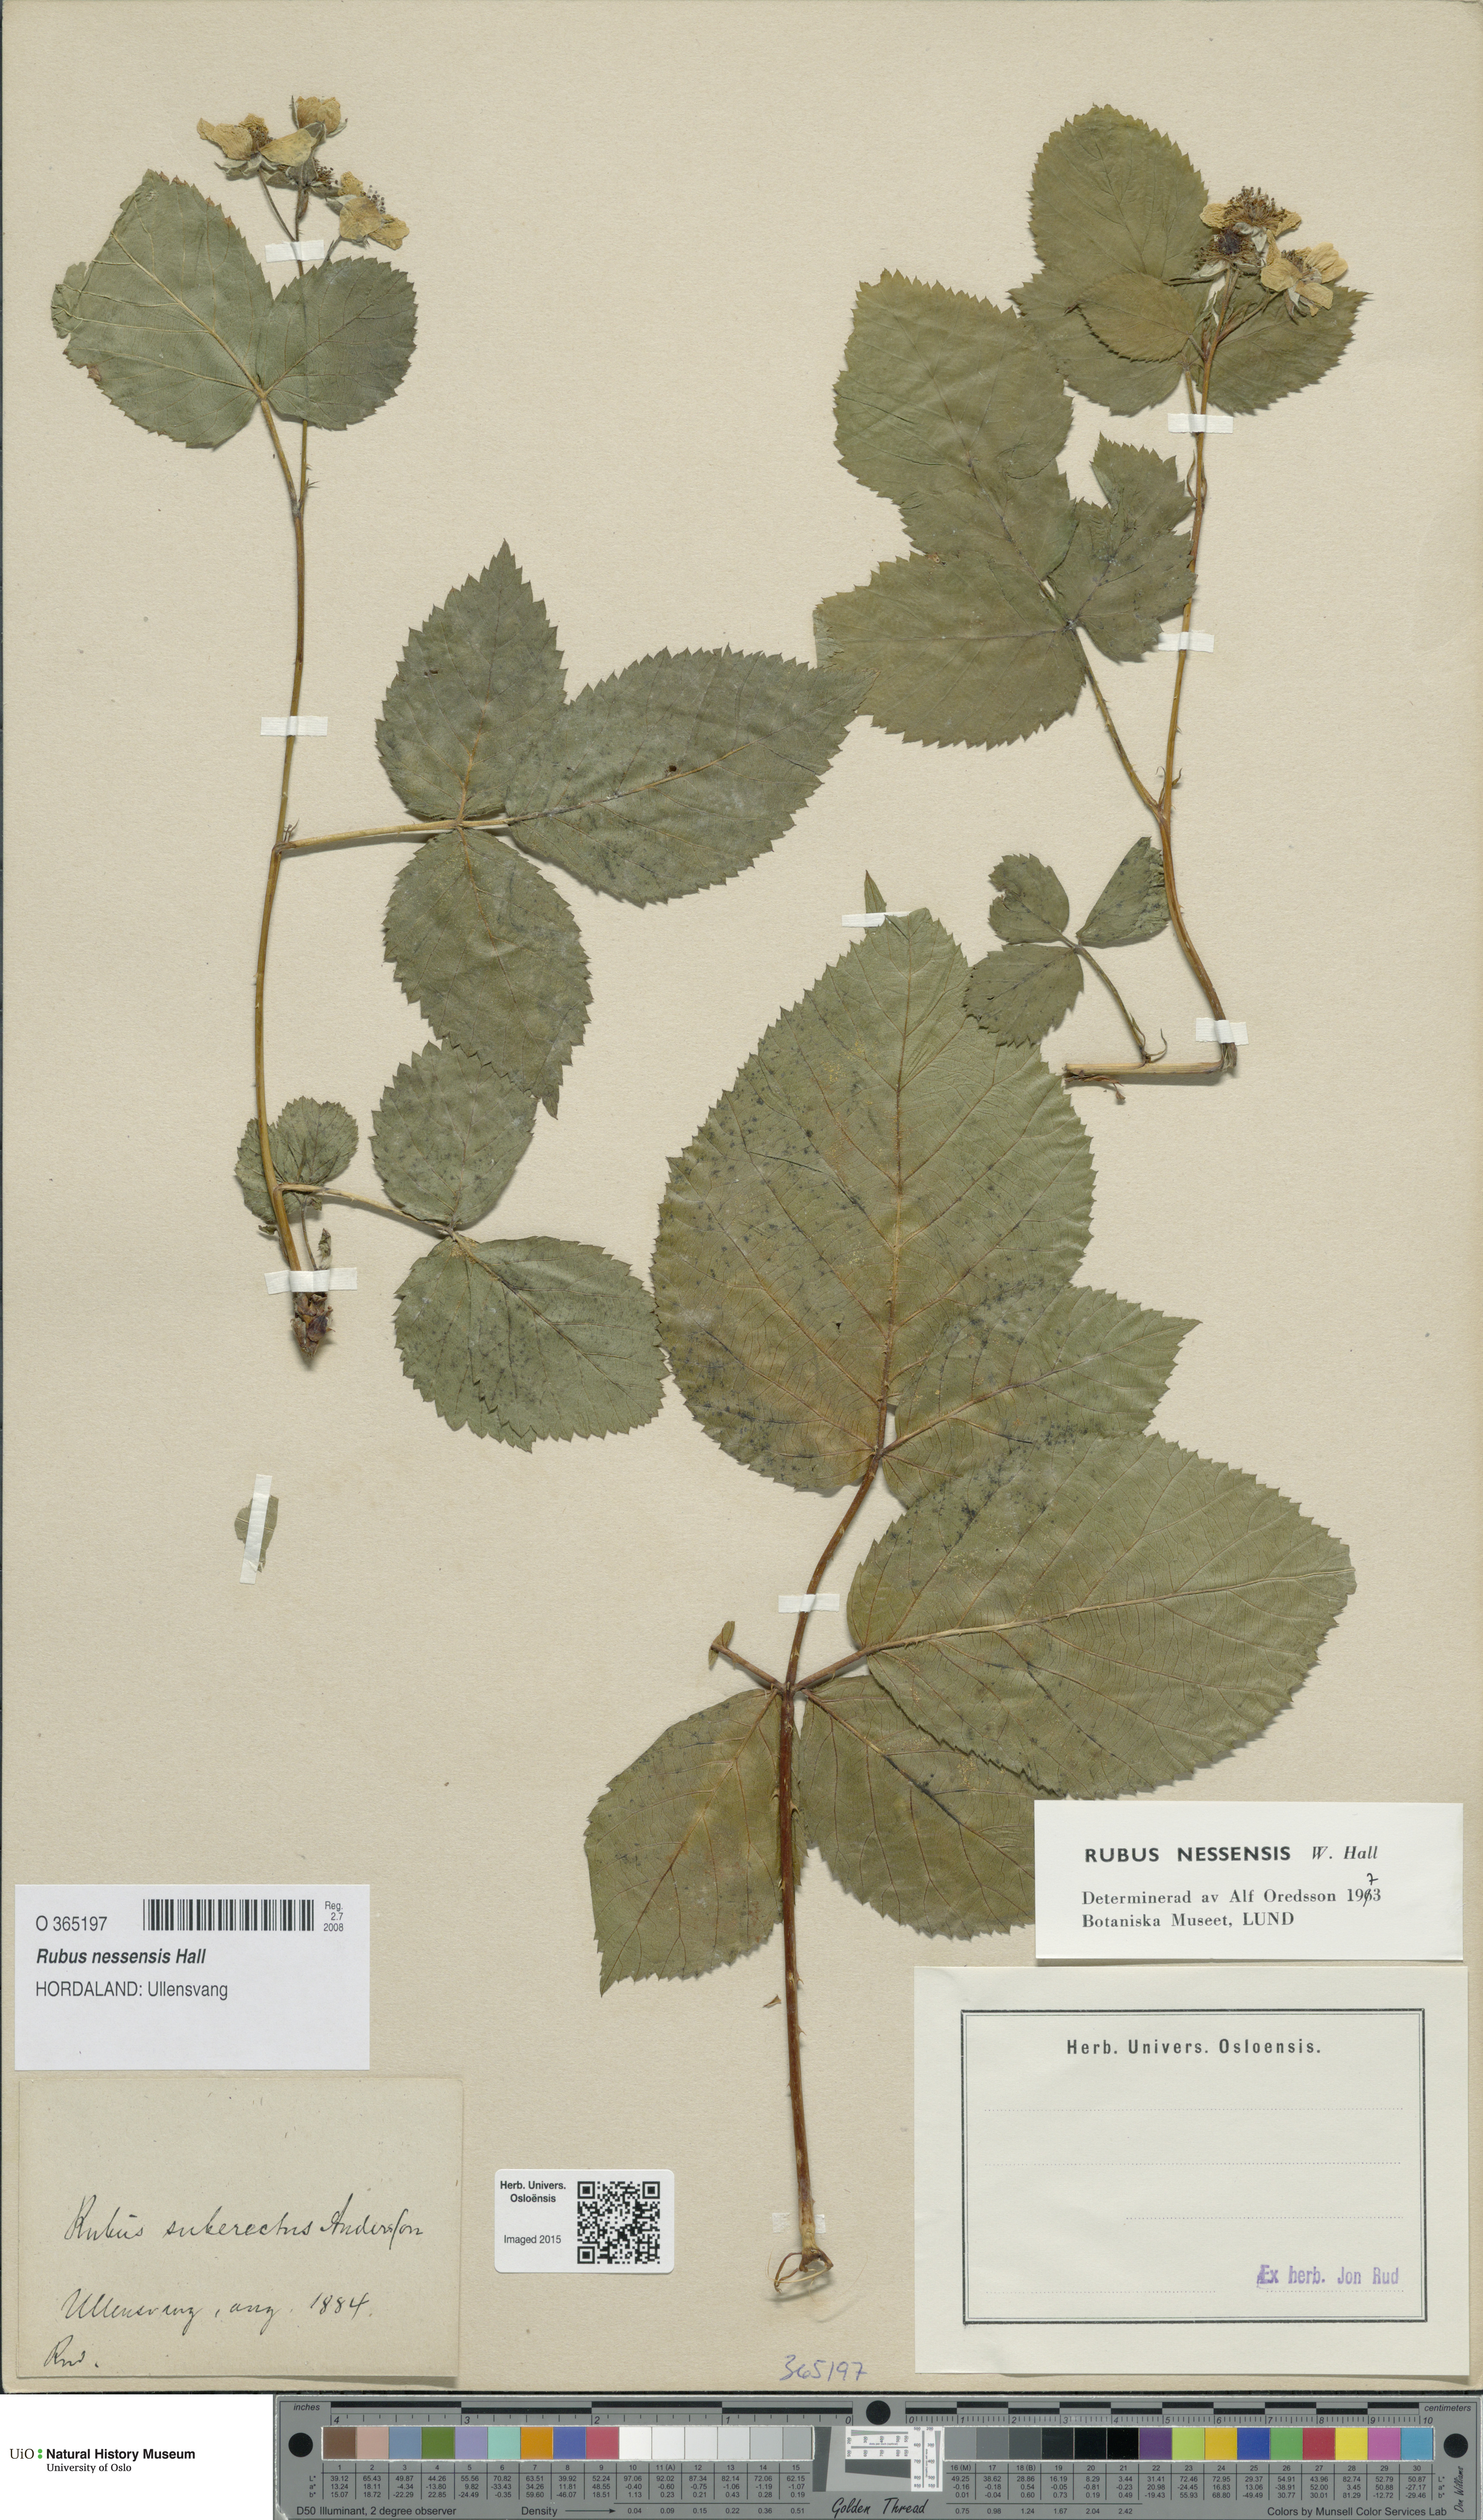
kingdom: Plantae
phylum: Tracheophyta
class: Magnoliopsida
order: Rosales
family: Rosaceae
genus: Rubus
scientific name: Rubus polonicus
